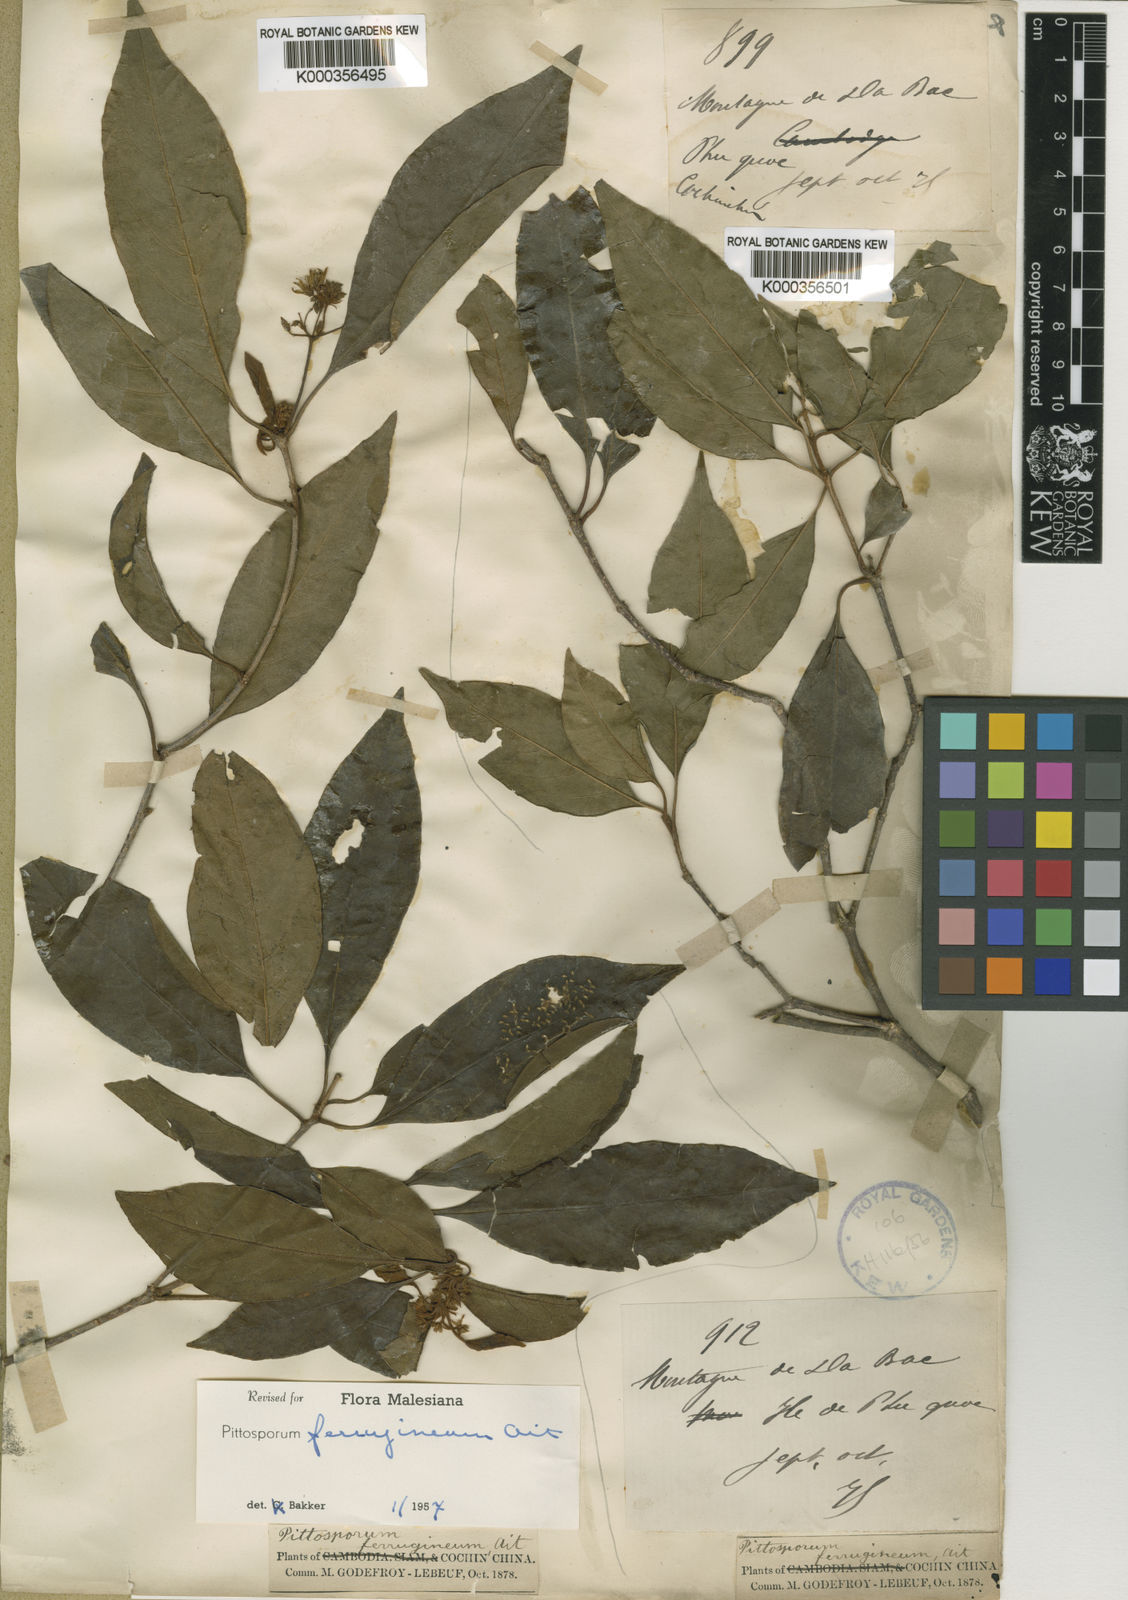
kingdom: Plantae
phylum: Tracheophyta
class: Magnoliopsida
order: Apiales
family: Pittosporaceae
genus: Pittosporum
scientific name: Pittosporum ferrugineum
